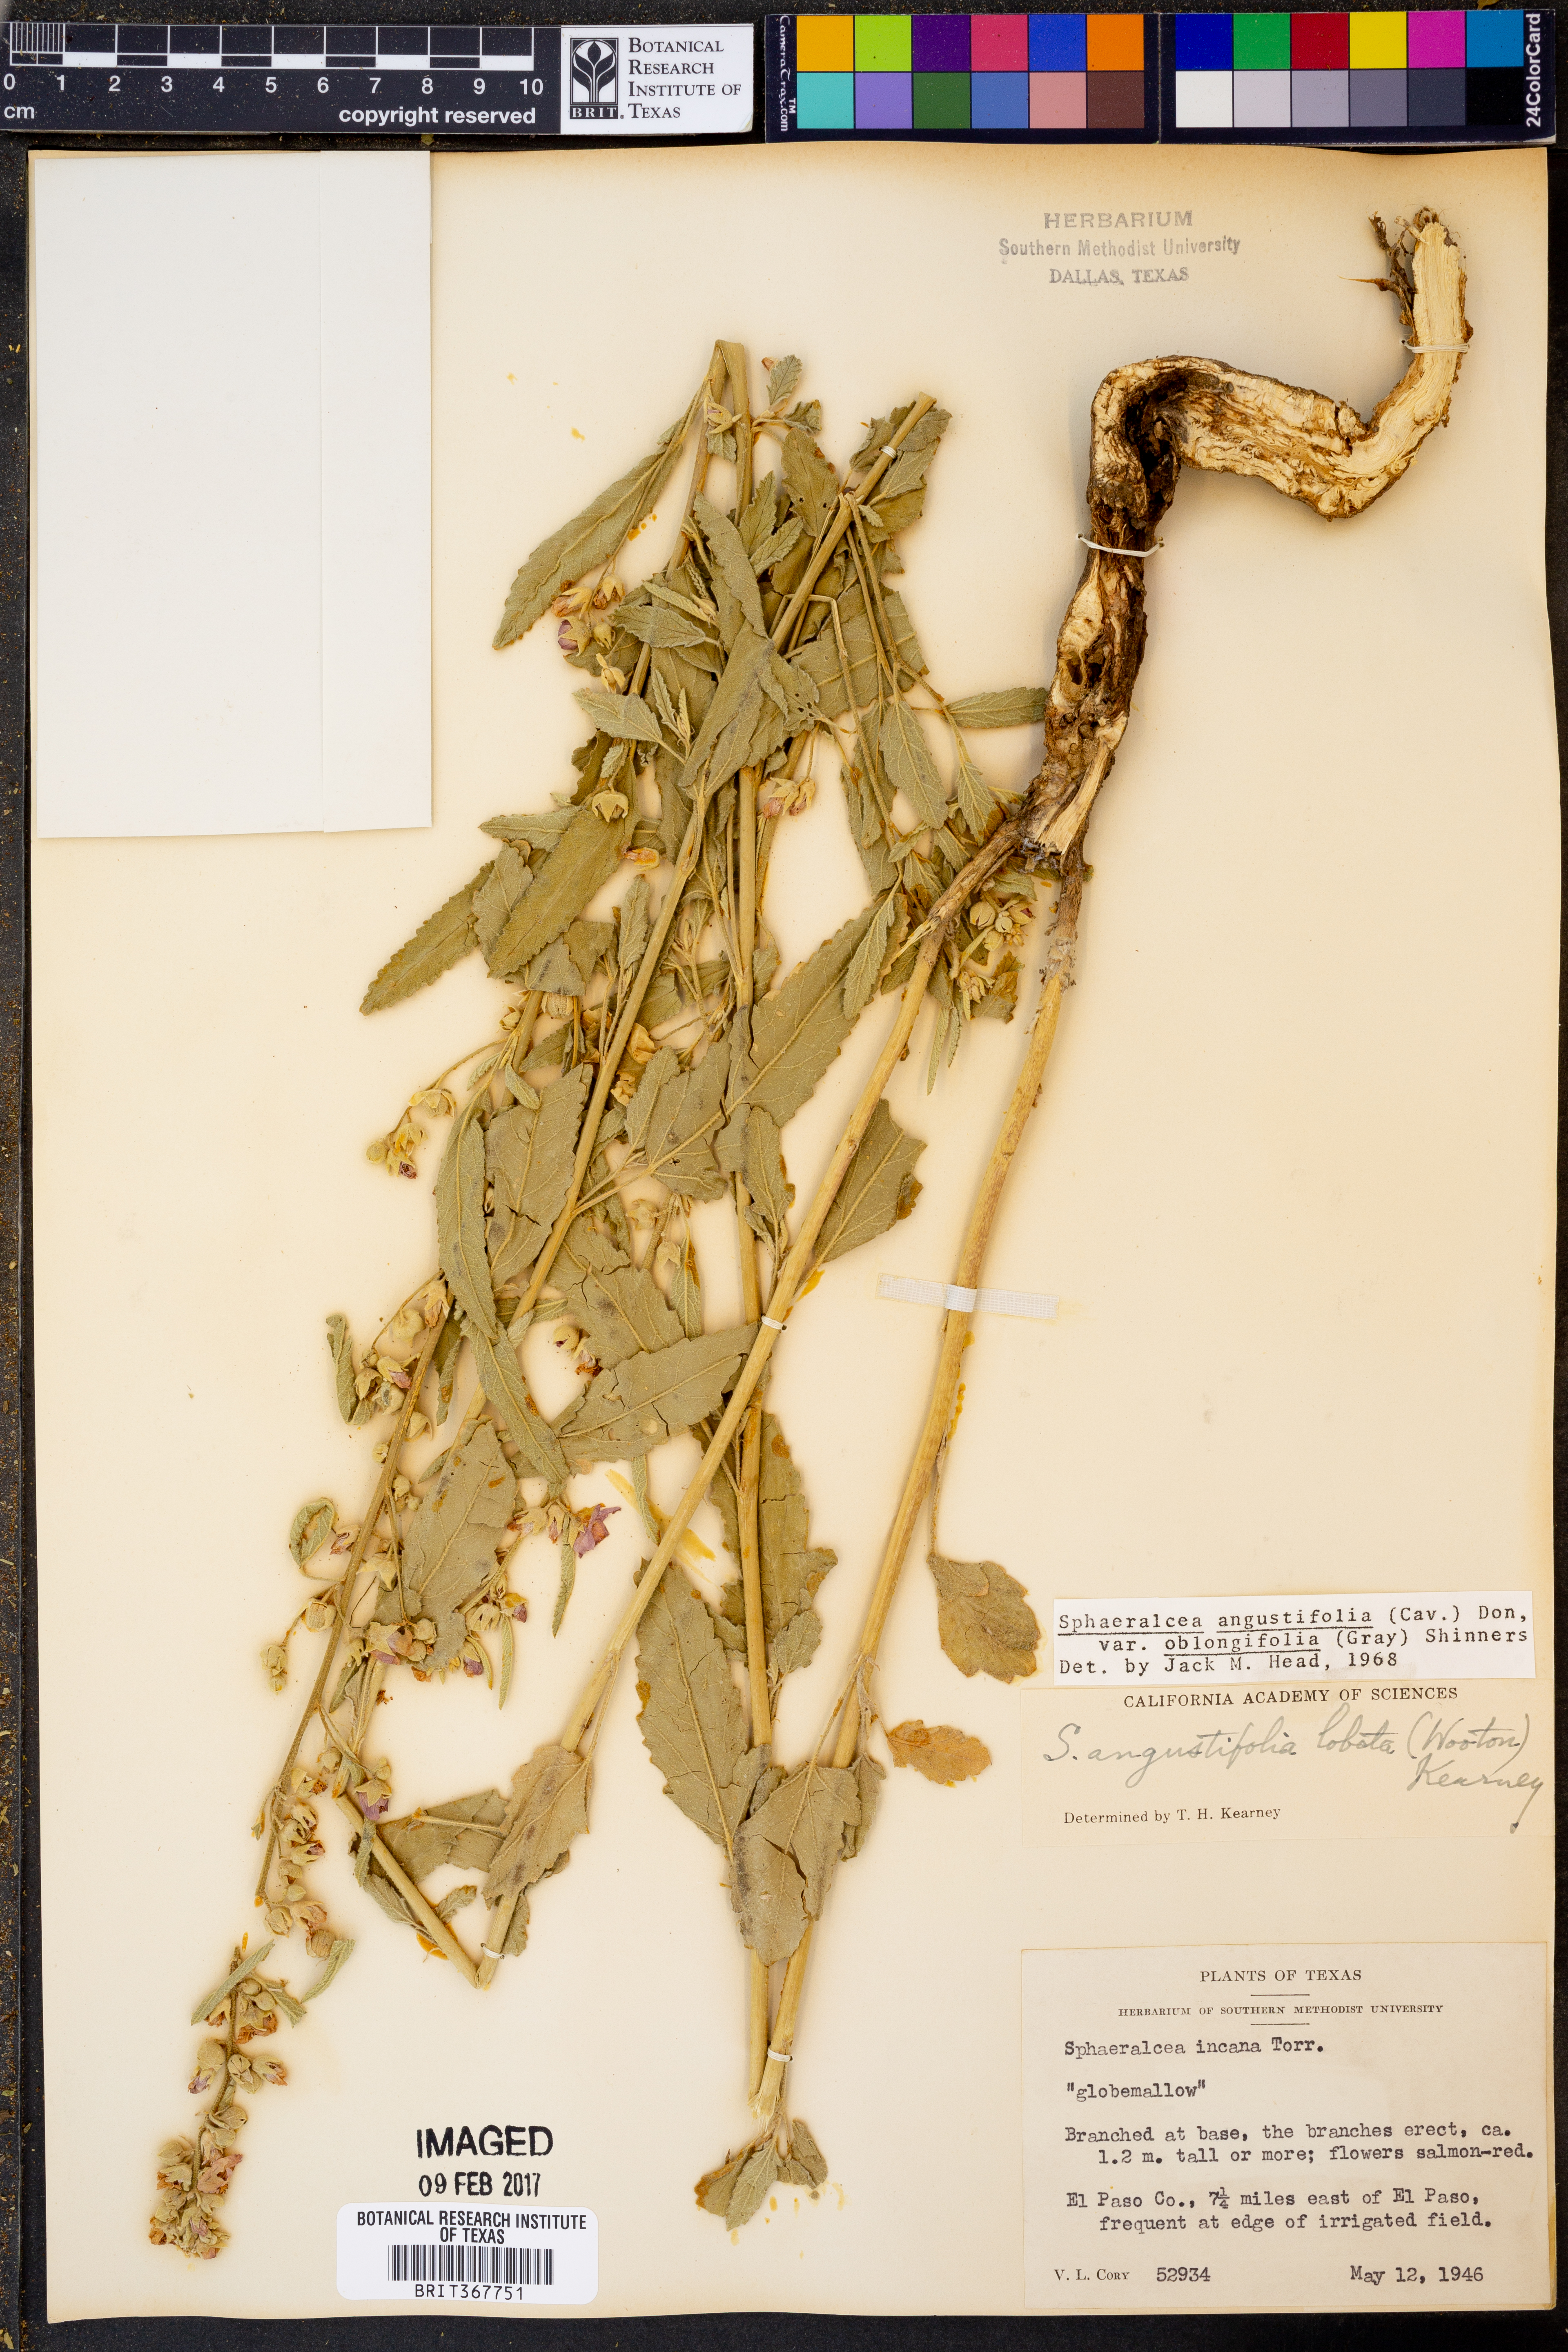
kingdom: Plantae
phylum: Tracheophyta
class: Magnoliopsida
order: Malvales
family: Malvaceae
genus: Sphaeralcea
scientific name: Sphaeralcea angustifolia
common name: Copper globe-mallow
